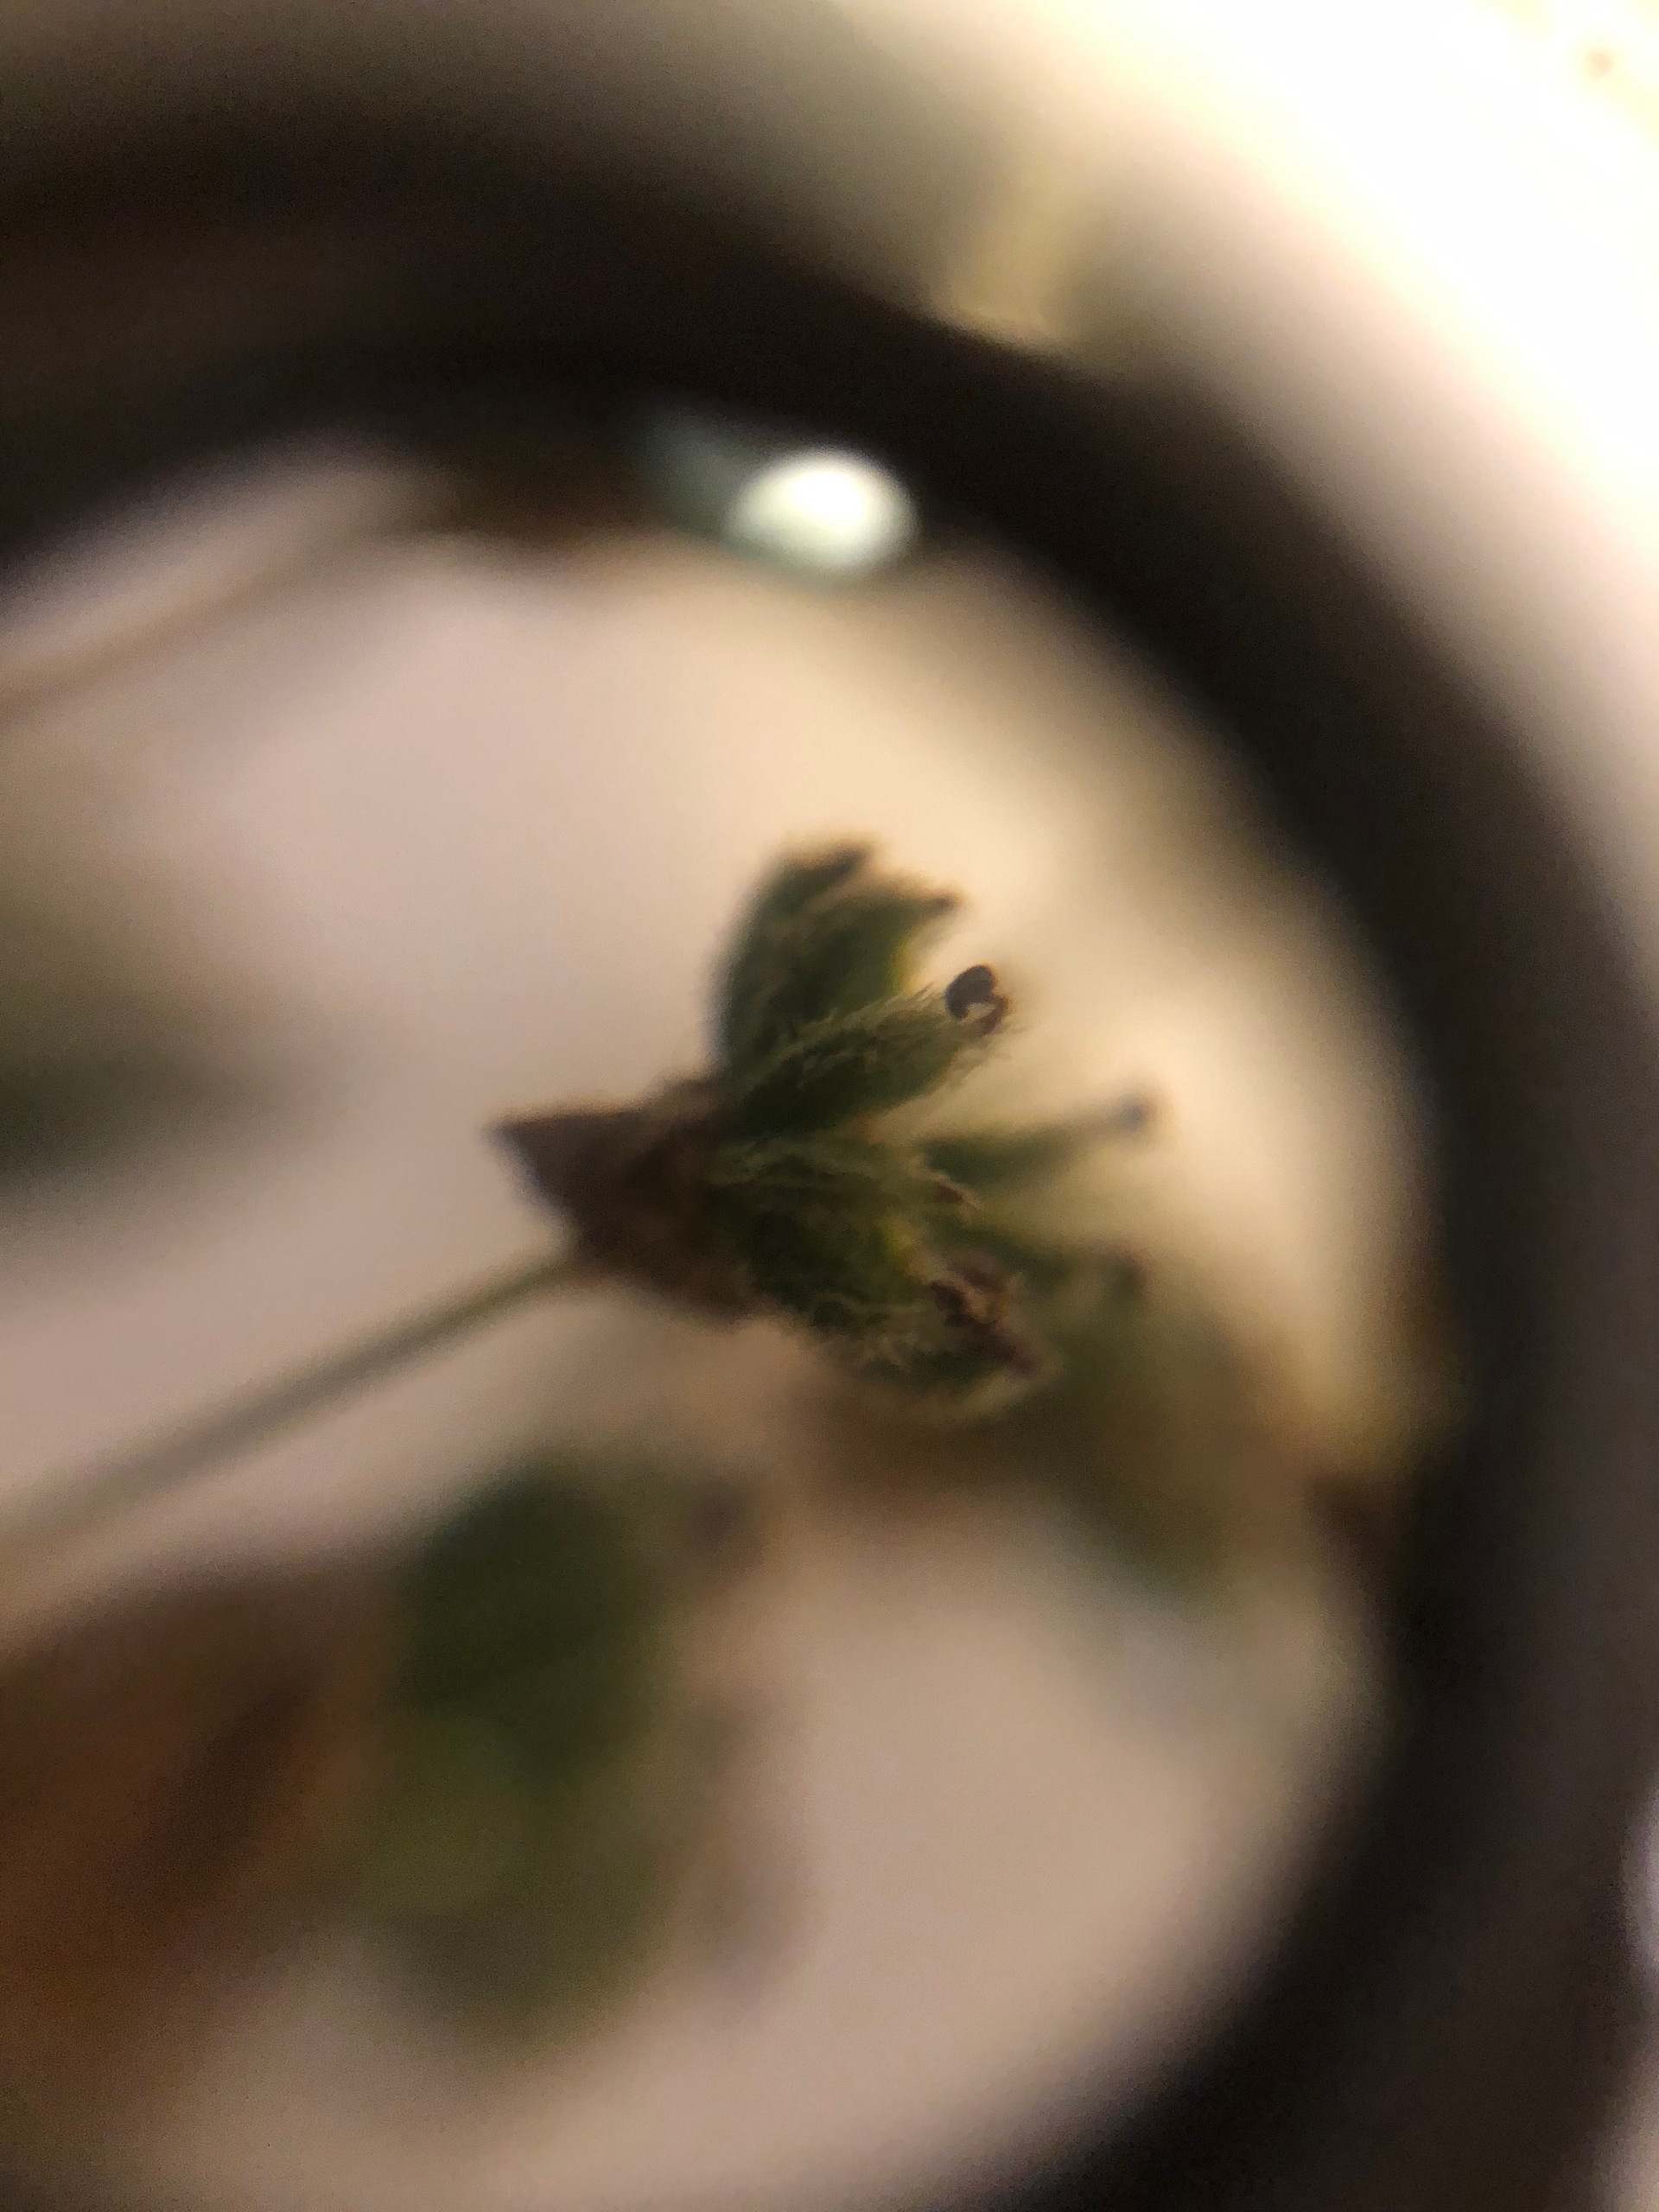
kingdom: Plantae
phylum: Tracheophyta
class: Magnoliopsida
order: Rosales
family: Rosaceae
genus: Filipendula
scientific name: Filipendula vulgaris
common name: Knoldet mjødurt
